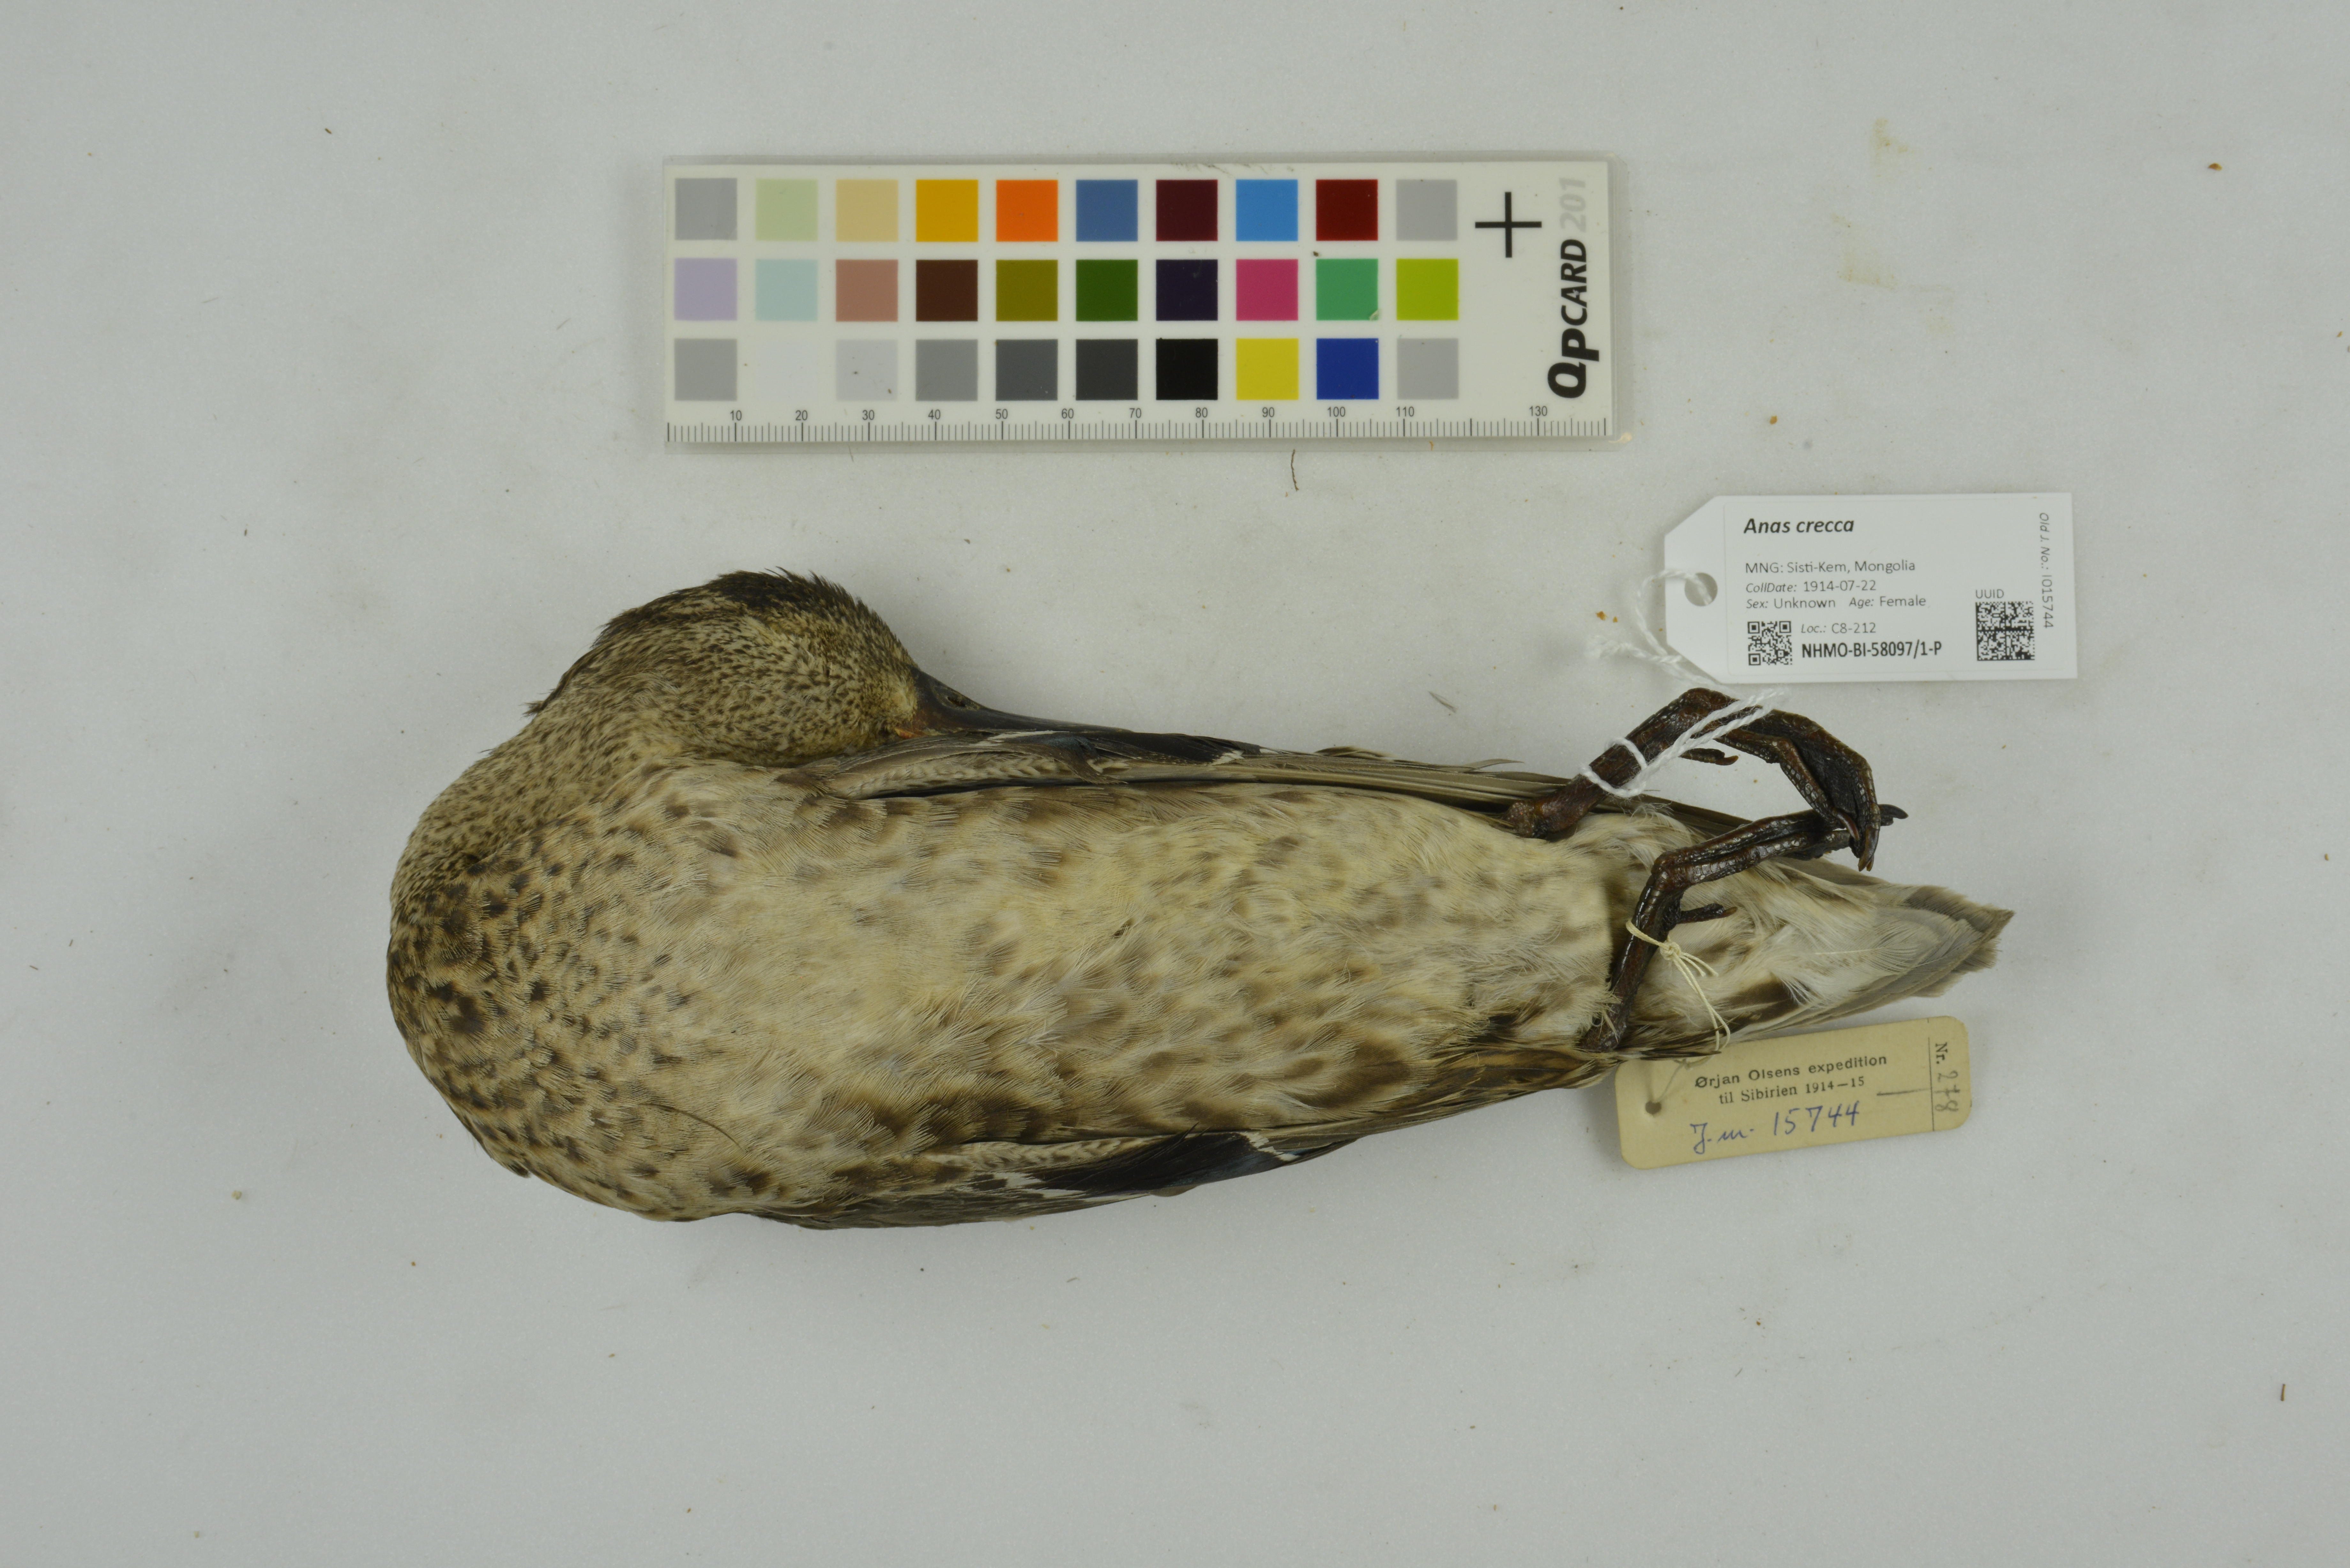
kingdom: Animalia
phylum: Chordata
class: Aves
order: Anseriformes
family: Anatidae
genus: Anas
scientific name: Anas crecca
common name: Eurasian teal
